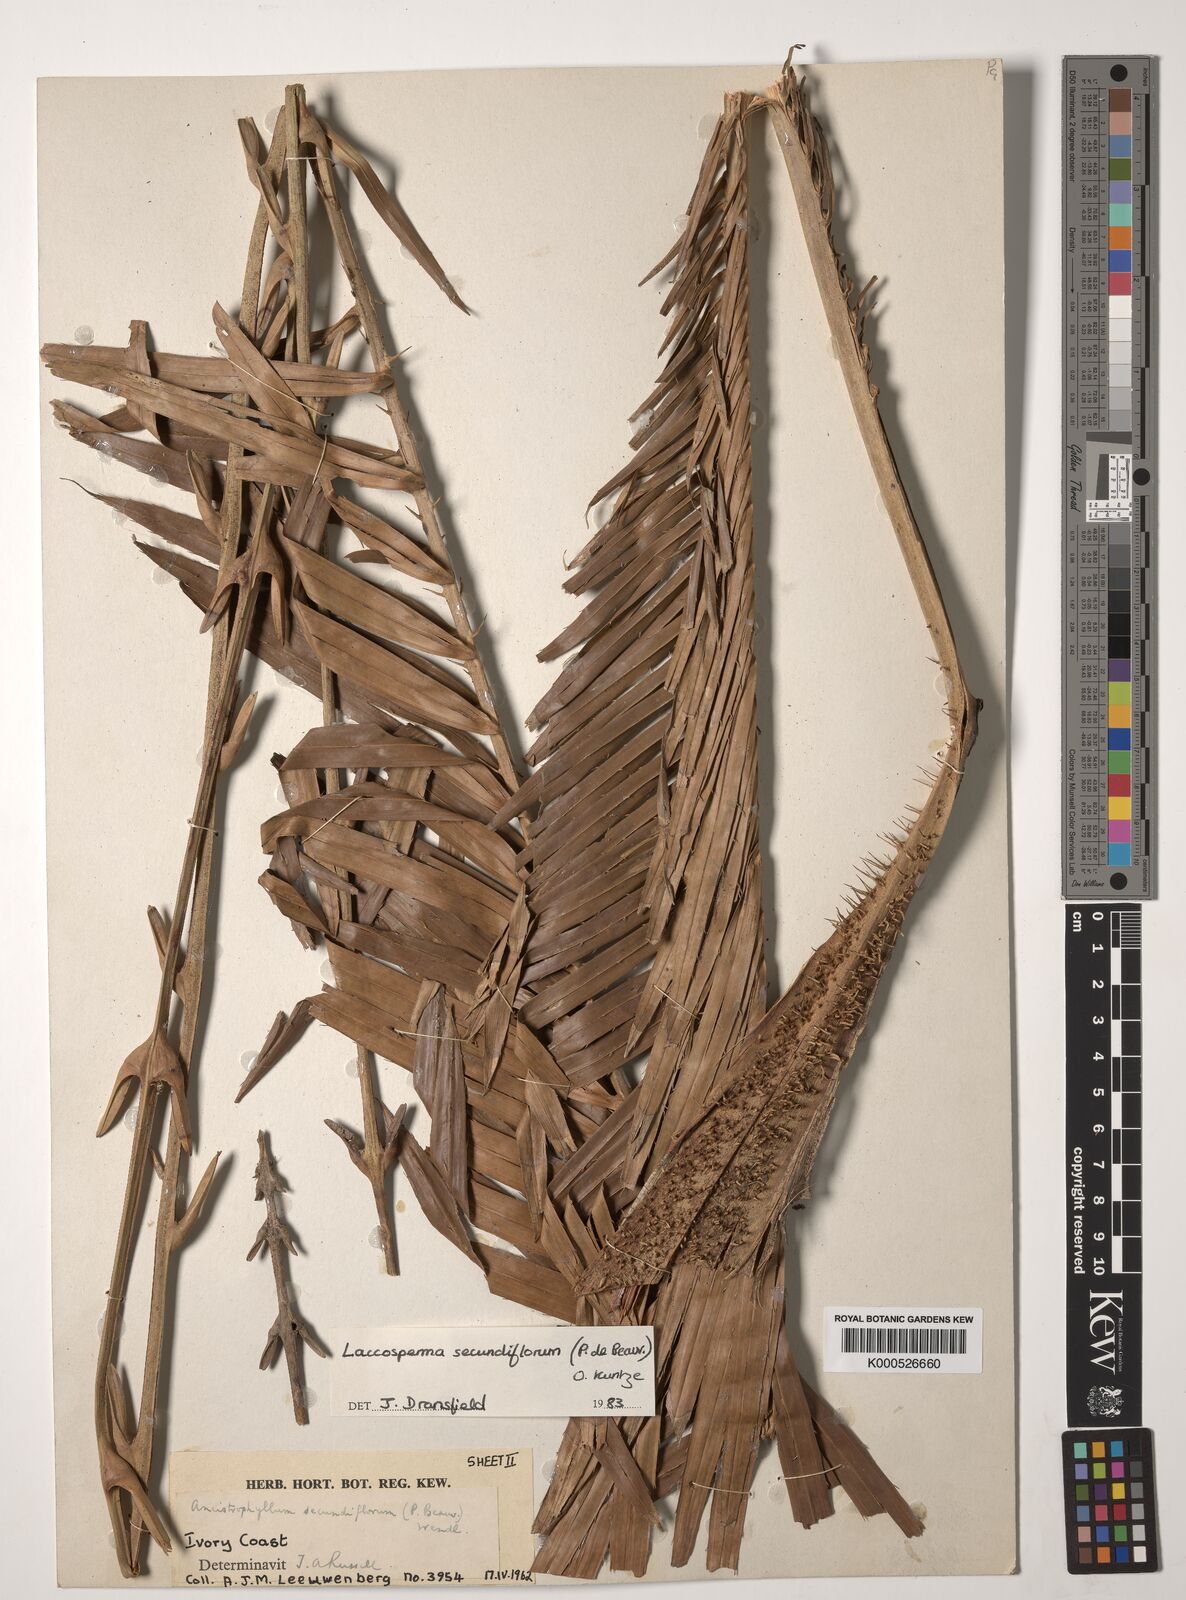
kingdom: Plantae
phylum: Tracheophyta
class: Liliopsida
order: Arecales
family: Arecaceae
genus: Laccosperma
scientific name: Laccosperma secundiflorum
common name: Rattan
